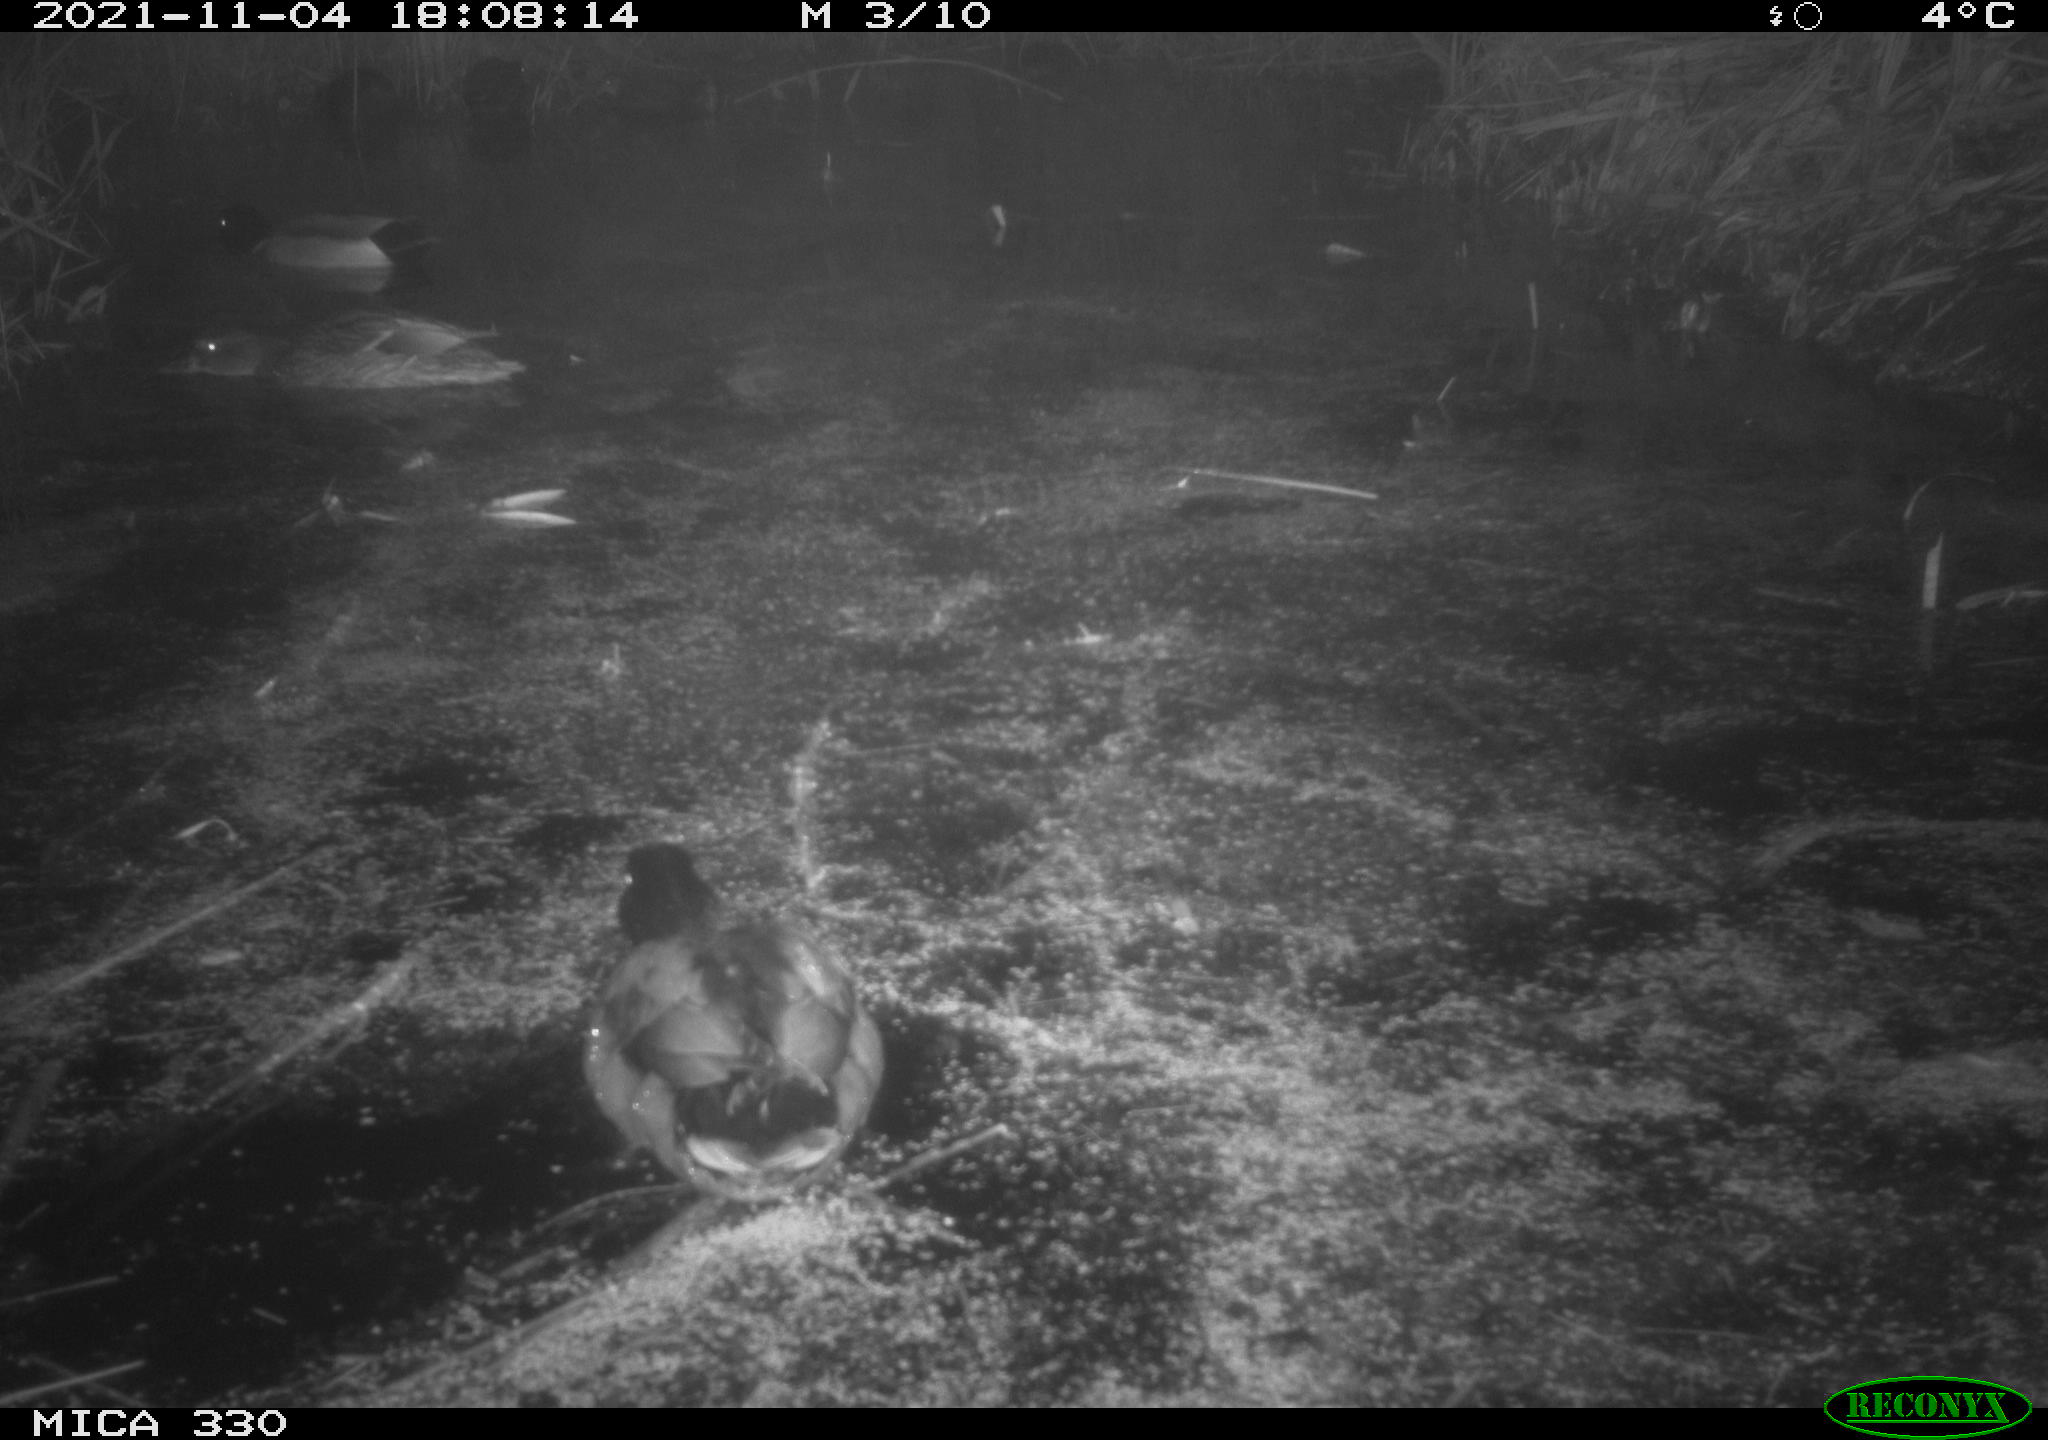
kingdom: Animalia
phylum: Chordata
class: Aves
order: Anseriformes
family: Anatidae
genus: Anas
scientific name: Anas platyrhynchos
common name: Mallard
